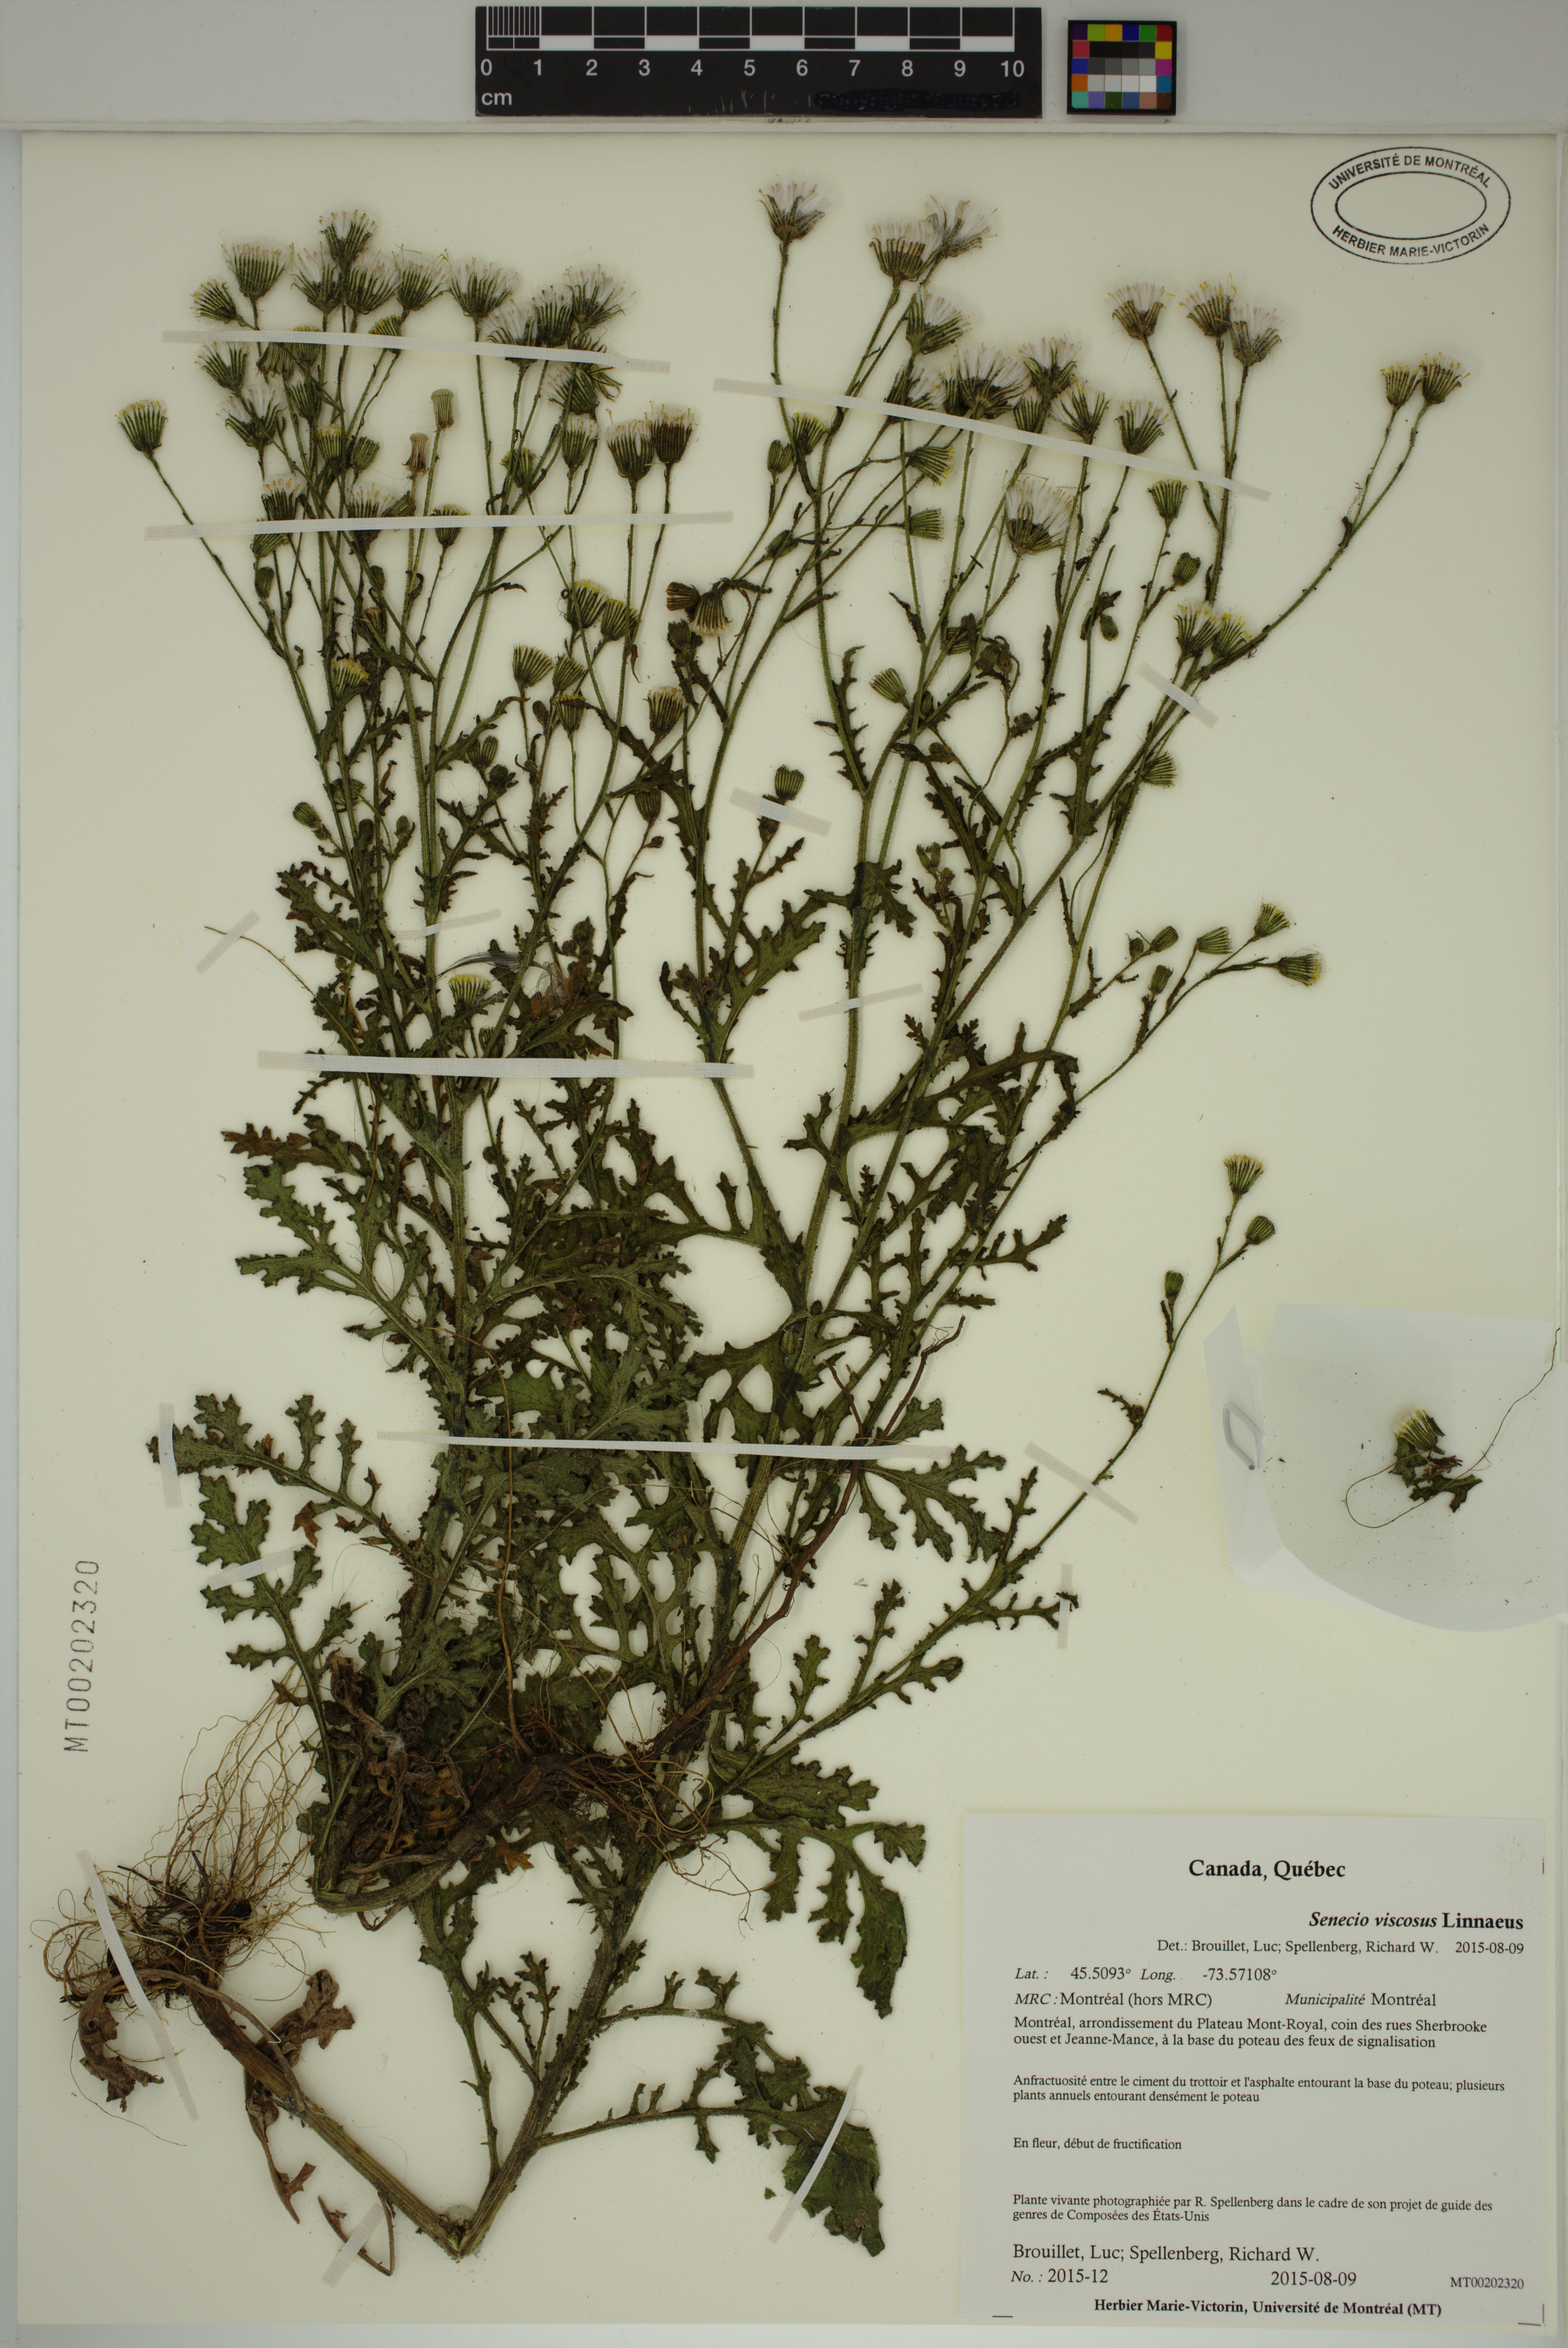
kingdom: Plantae
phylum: Tracheophyta
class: Magnoliopsida
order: Asterales
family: Asteraceae
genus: Senecio
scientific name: Senecio viscosus
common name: Sticky groundsel
